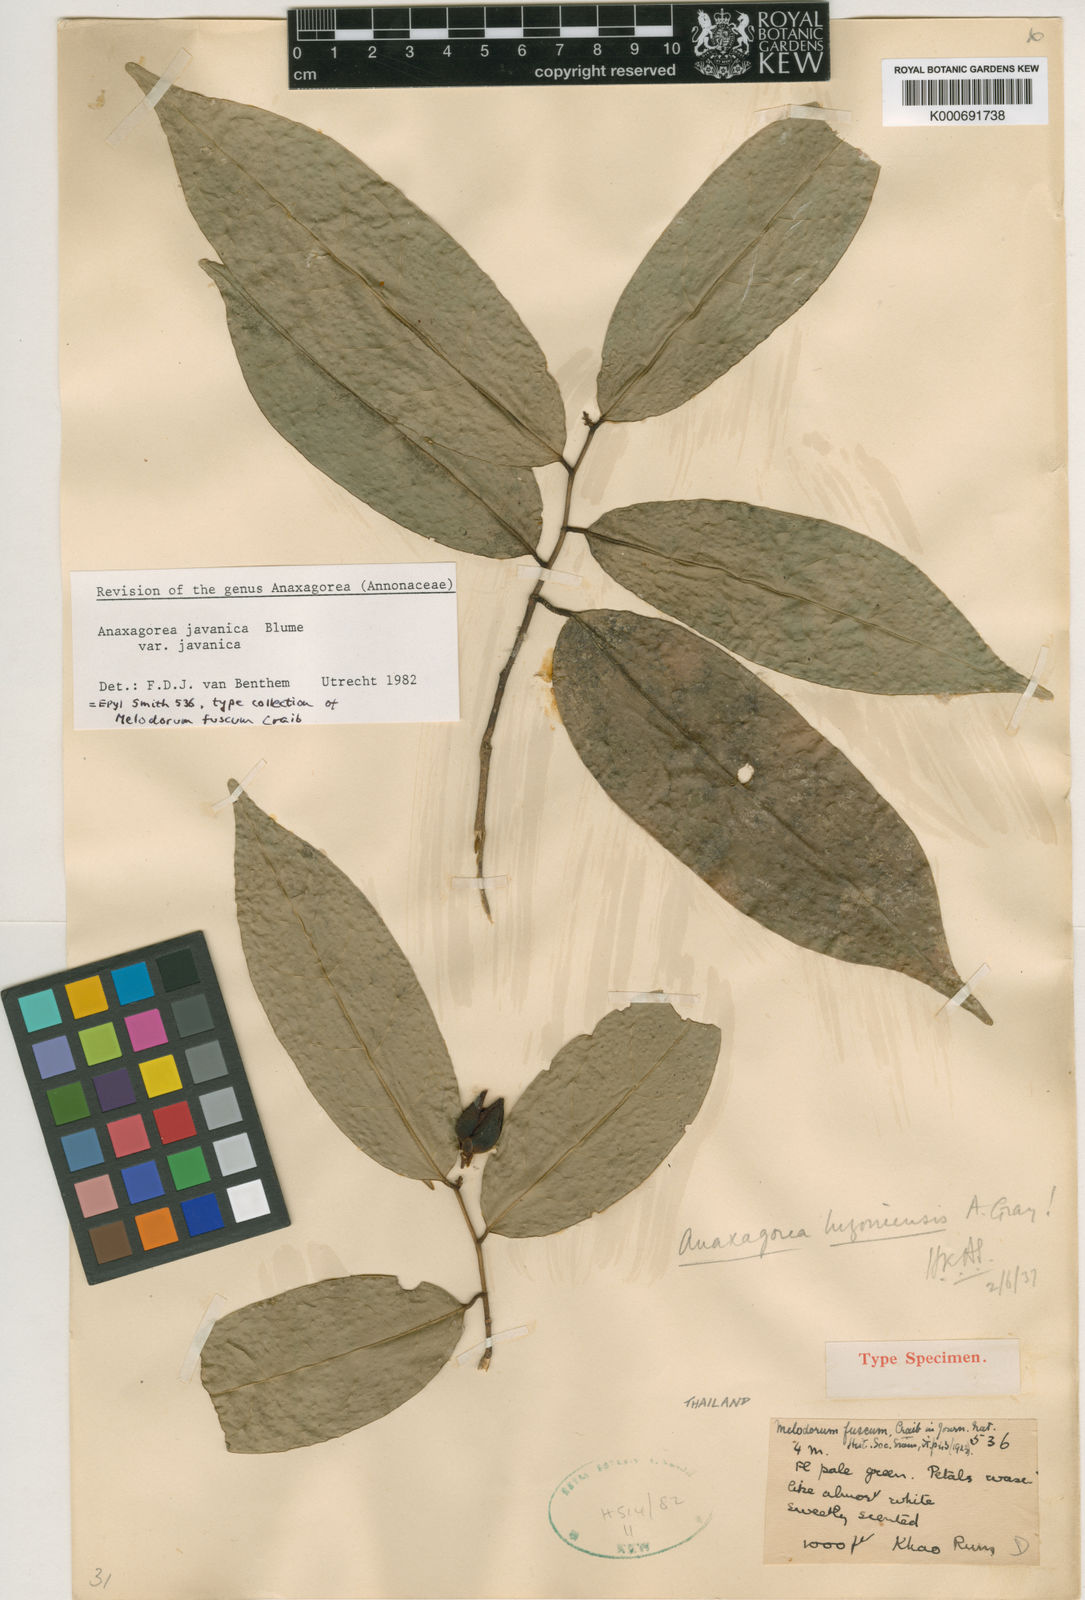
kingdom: Plantae
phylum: Tracheophyta
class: Magnoliopsida
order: Magnoliales
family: Annonaceae
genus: Anaxagorea
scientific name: Anaxagorea javanica
